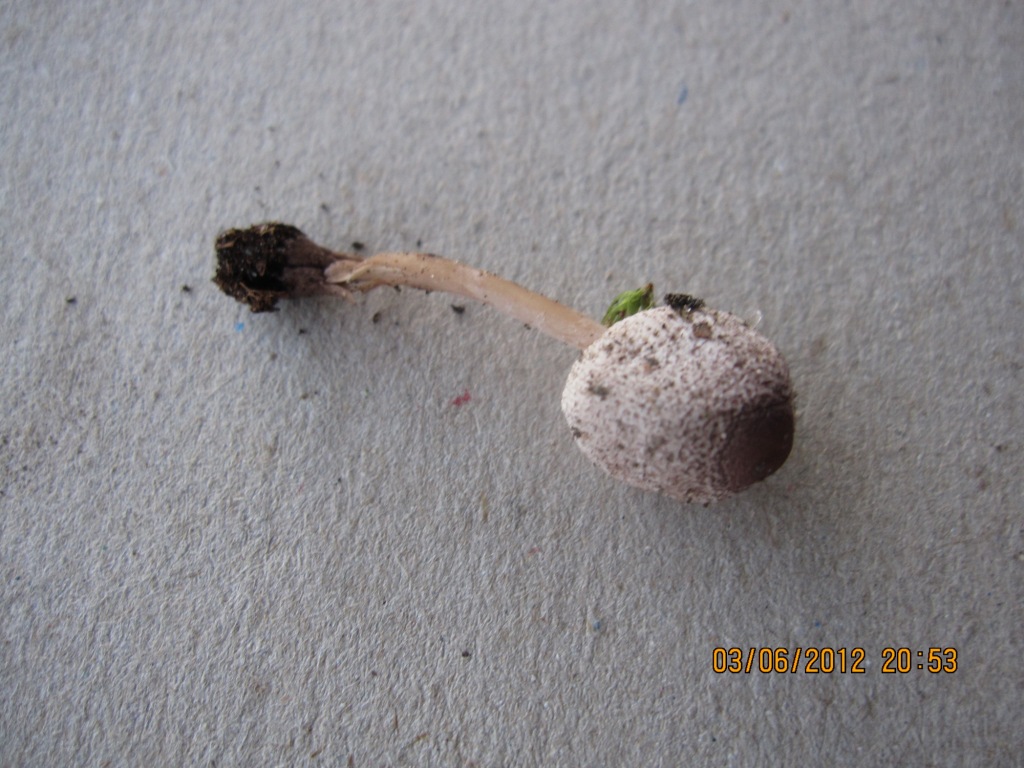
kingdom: Fungi
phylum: Basidiomycota
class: Agaricomycetes
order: Agaricales
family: Agaricaceae
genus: Leucocoprinus
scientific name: Leucocoprinus brebissonii
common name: gråsort silkehat
